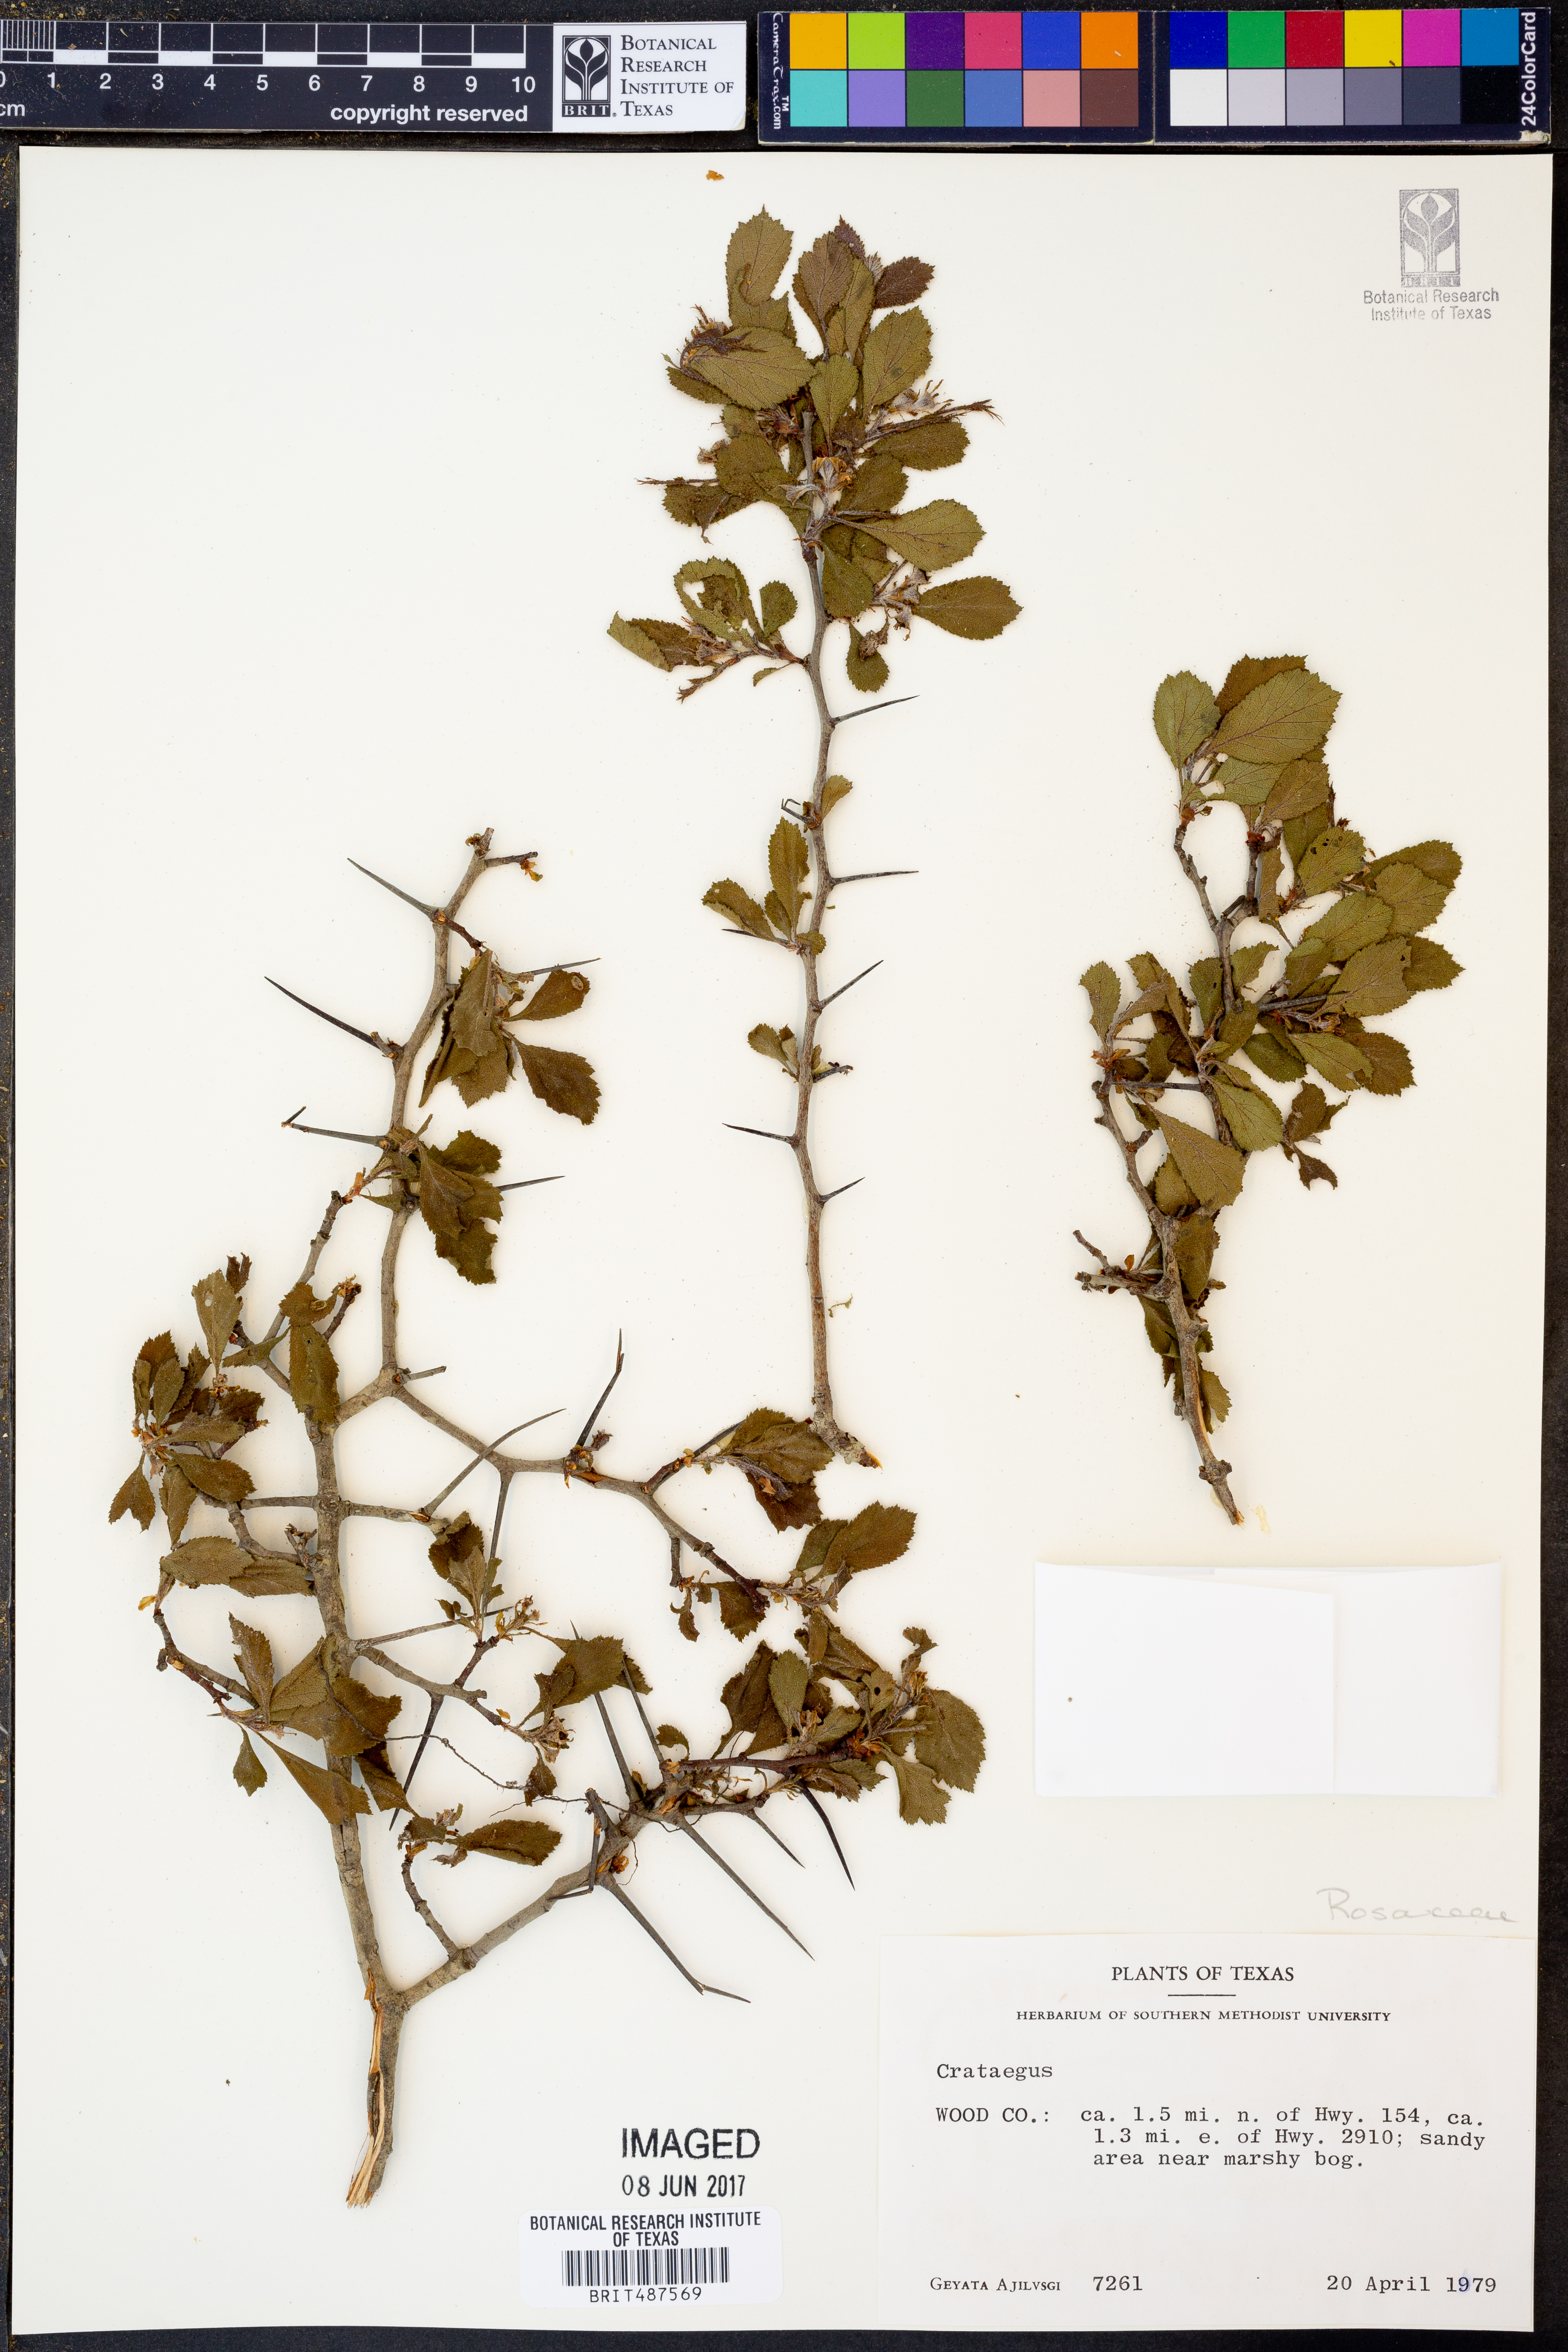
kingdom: Plantae
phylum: Tracheophyta
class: Magnoliopsida
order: Rosales
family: Rosaceae
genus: Crataegus
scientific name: Crataegus
